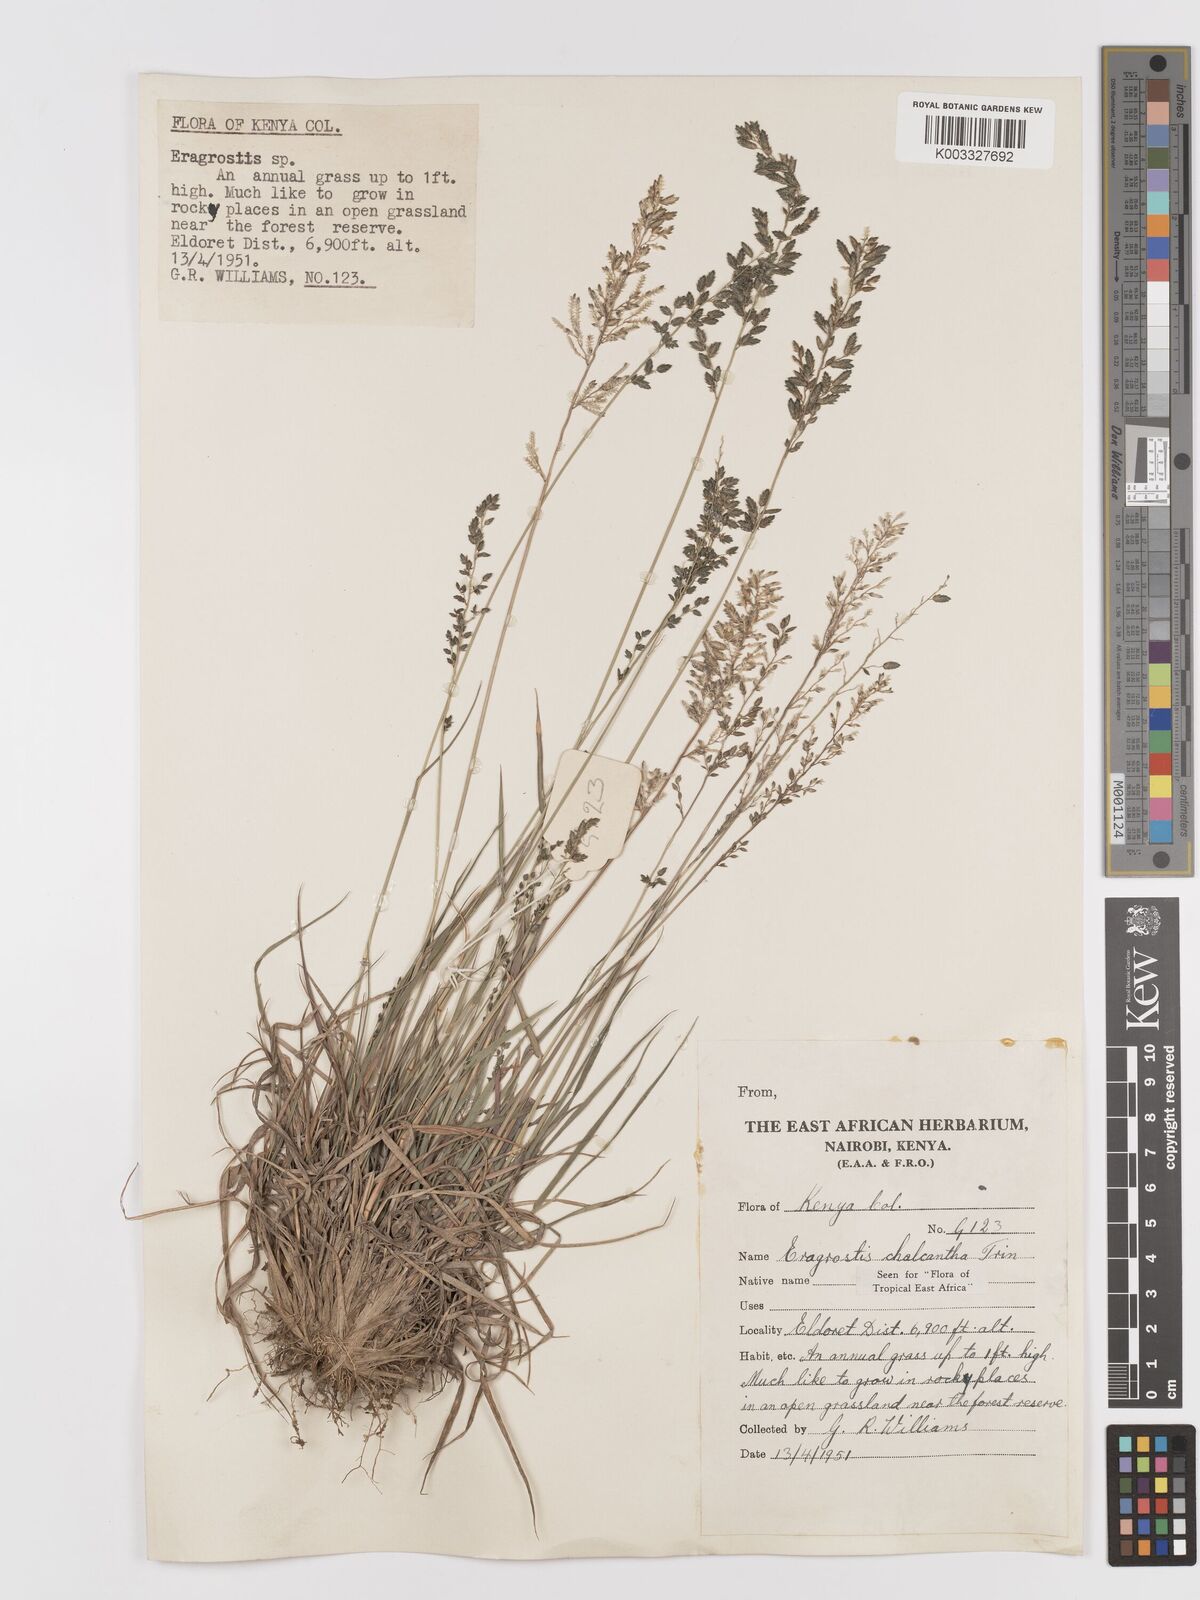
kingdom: Plantae
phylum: Tracheophyta
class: Liliopsida
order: Poales
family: Poaceae
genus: Eragrostis
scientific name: Eragrostis racemosa
